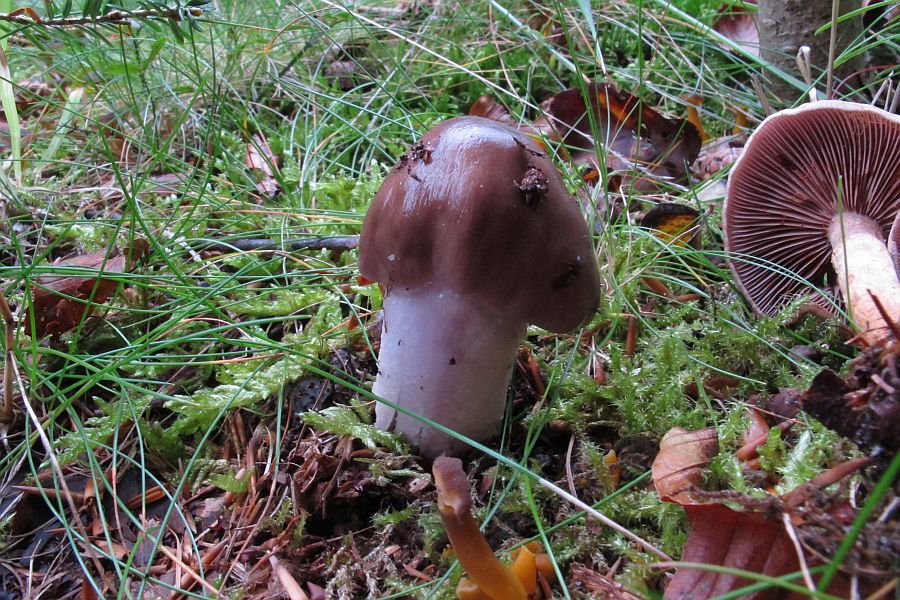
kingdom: Fungi
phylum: Basidiomycota
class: Agaricomycetes
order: Agaricales
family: Cortinariaceae
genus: Cortinarius
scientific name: Cortinarius elatior
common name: høj slørhat
